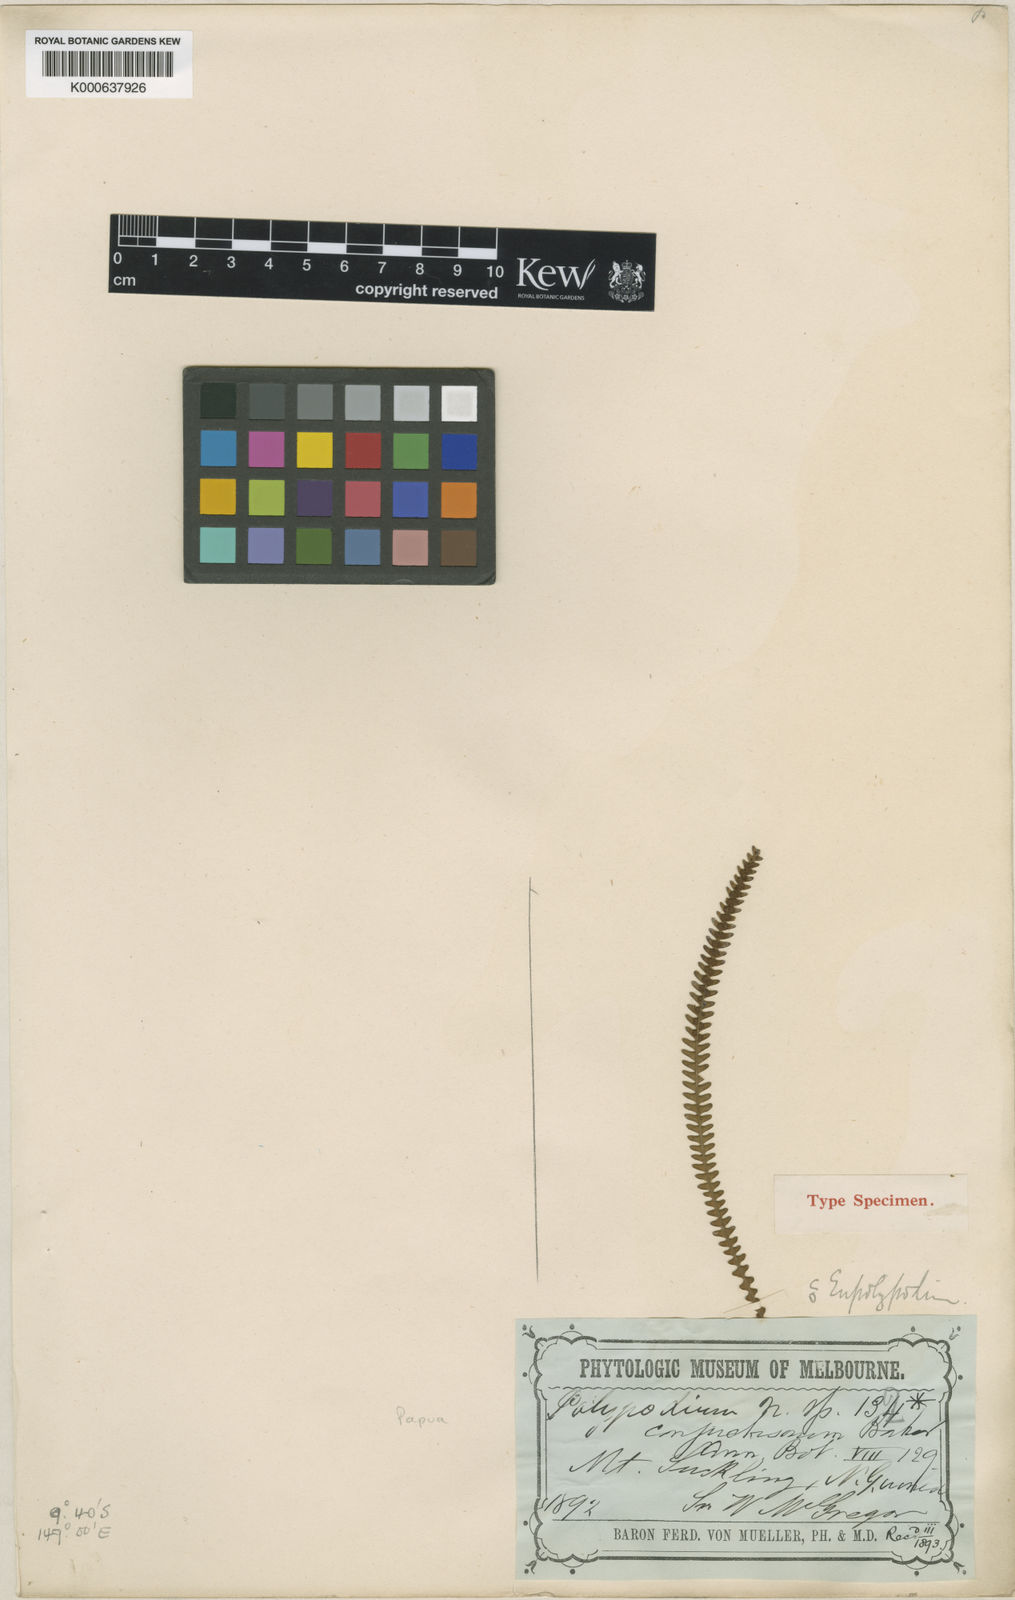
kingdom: Plantae
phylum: Tracheophyta
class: Polypodiopsida
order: Polypodiales
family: Polypodiaceae
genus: Oreogrammitis
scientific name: Oreogrammitis conjunctisora
